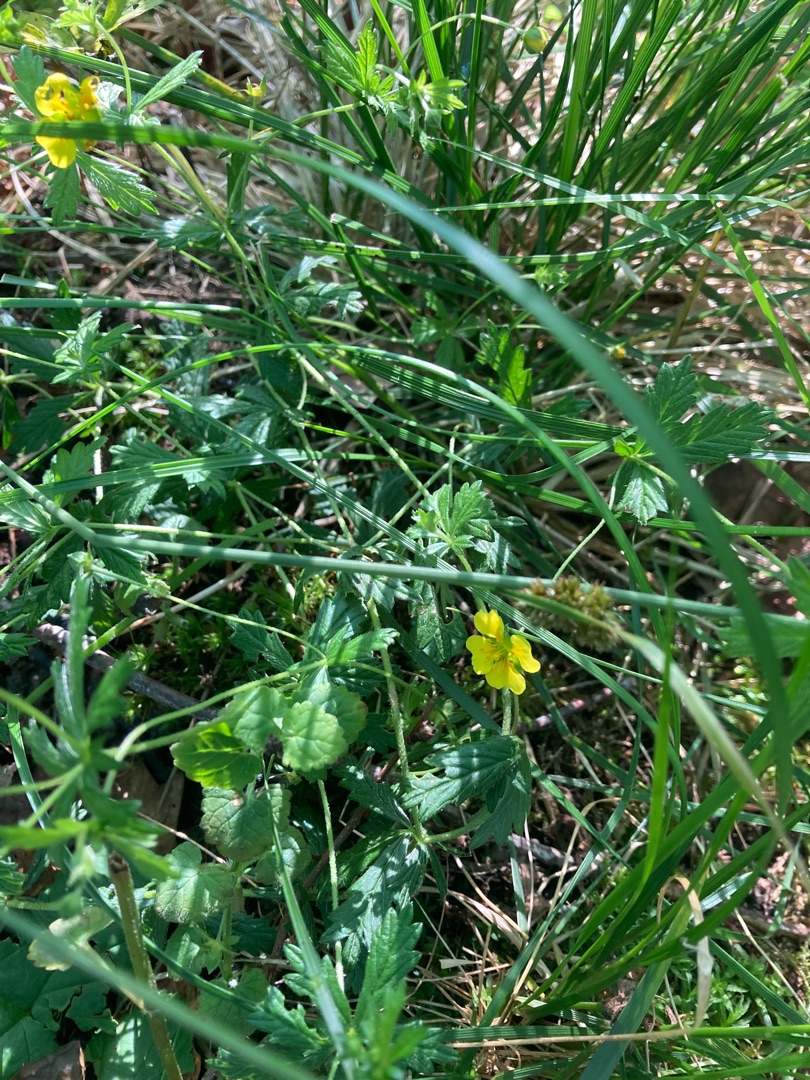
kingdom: Plantae
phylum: Tracheophyta
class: Magnoliopsida
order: Rosales
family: Rosaceae
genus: Potentilla
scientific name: Potentilla erecta
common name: Tormentil
